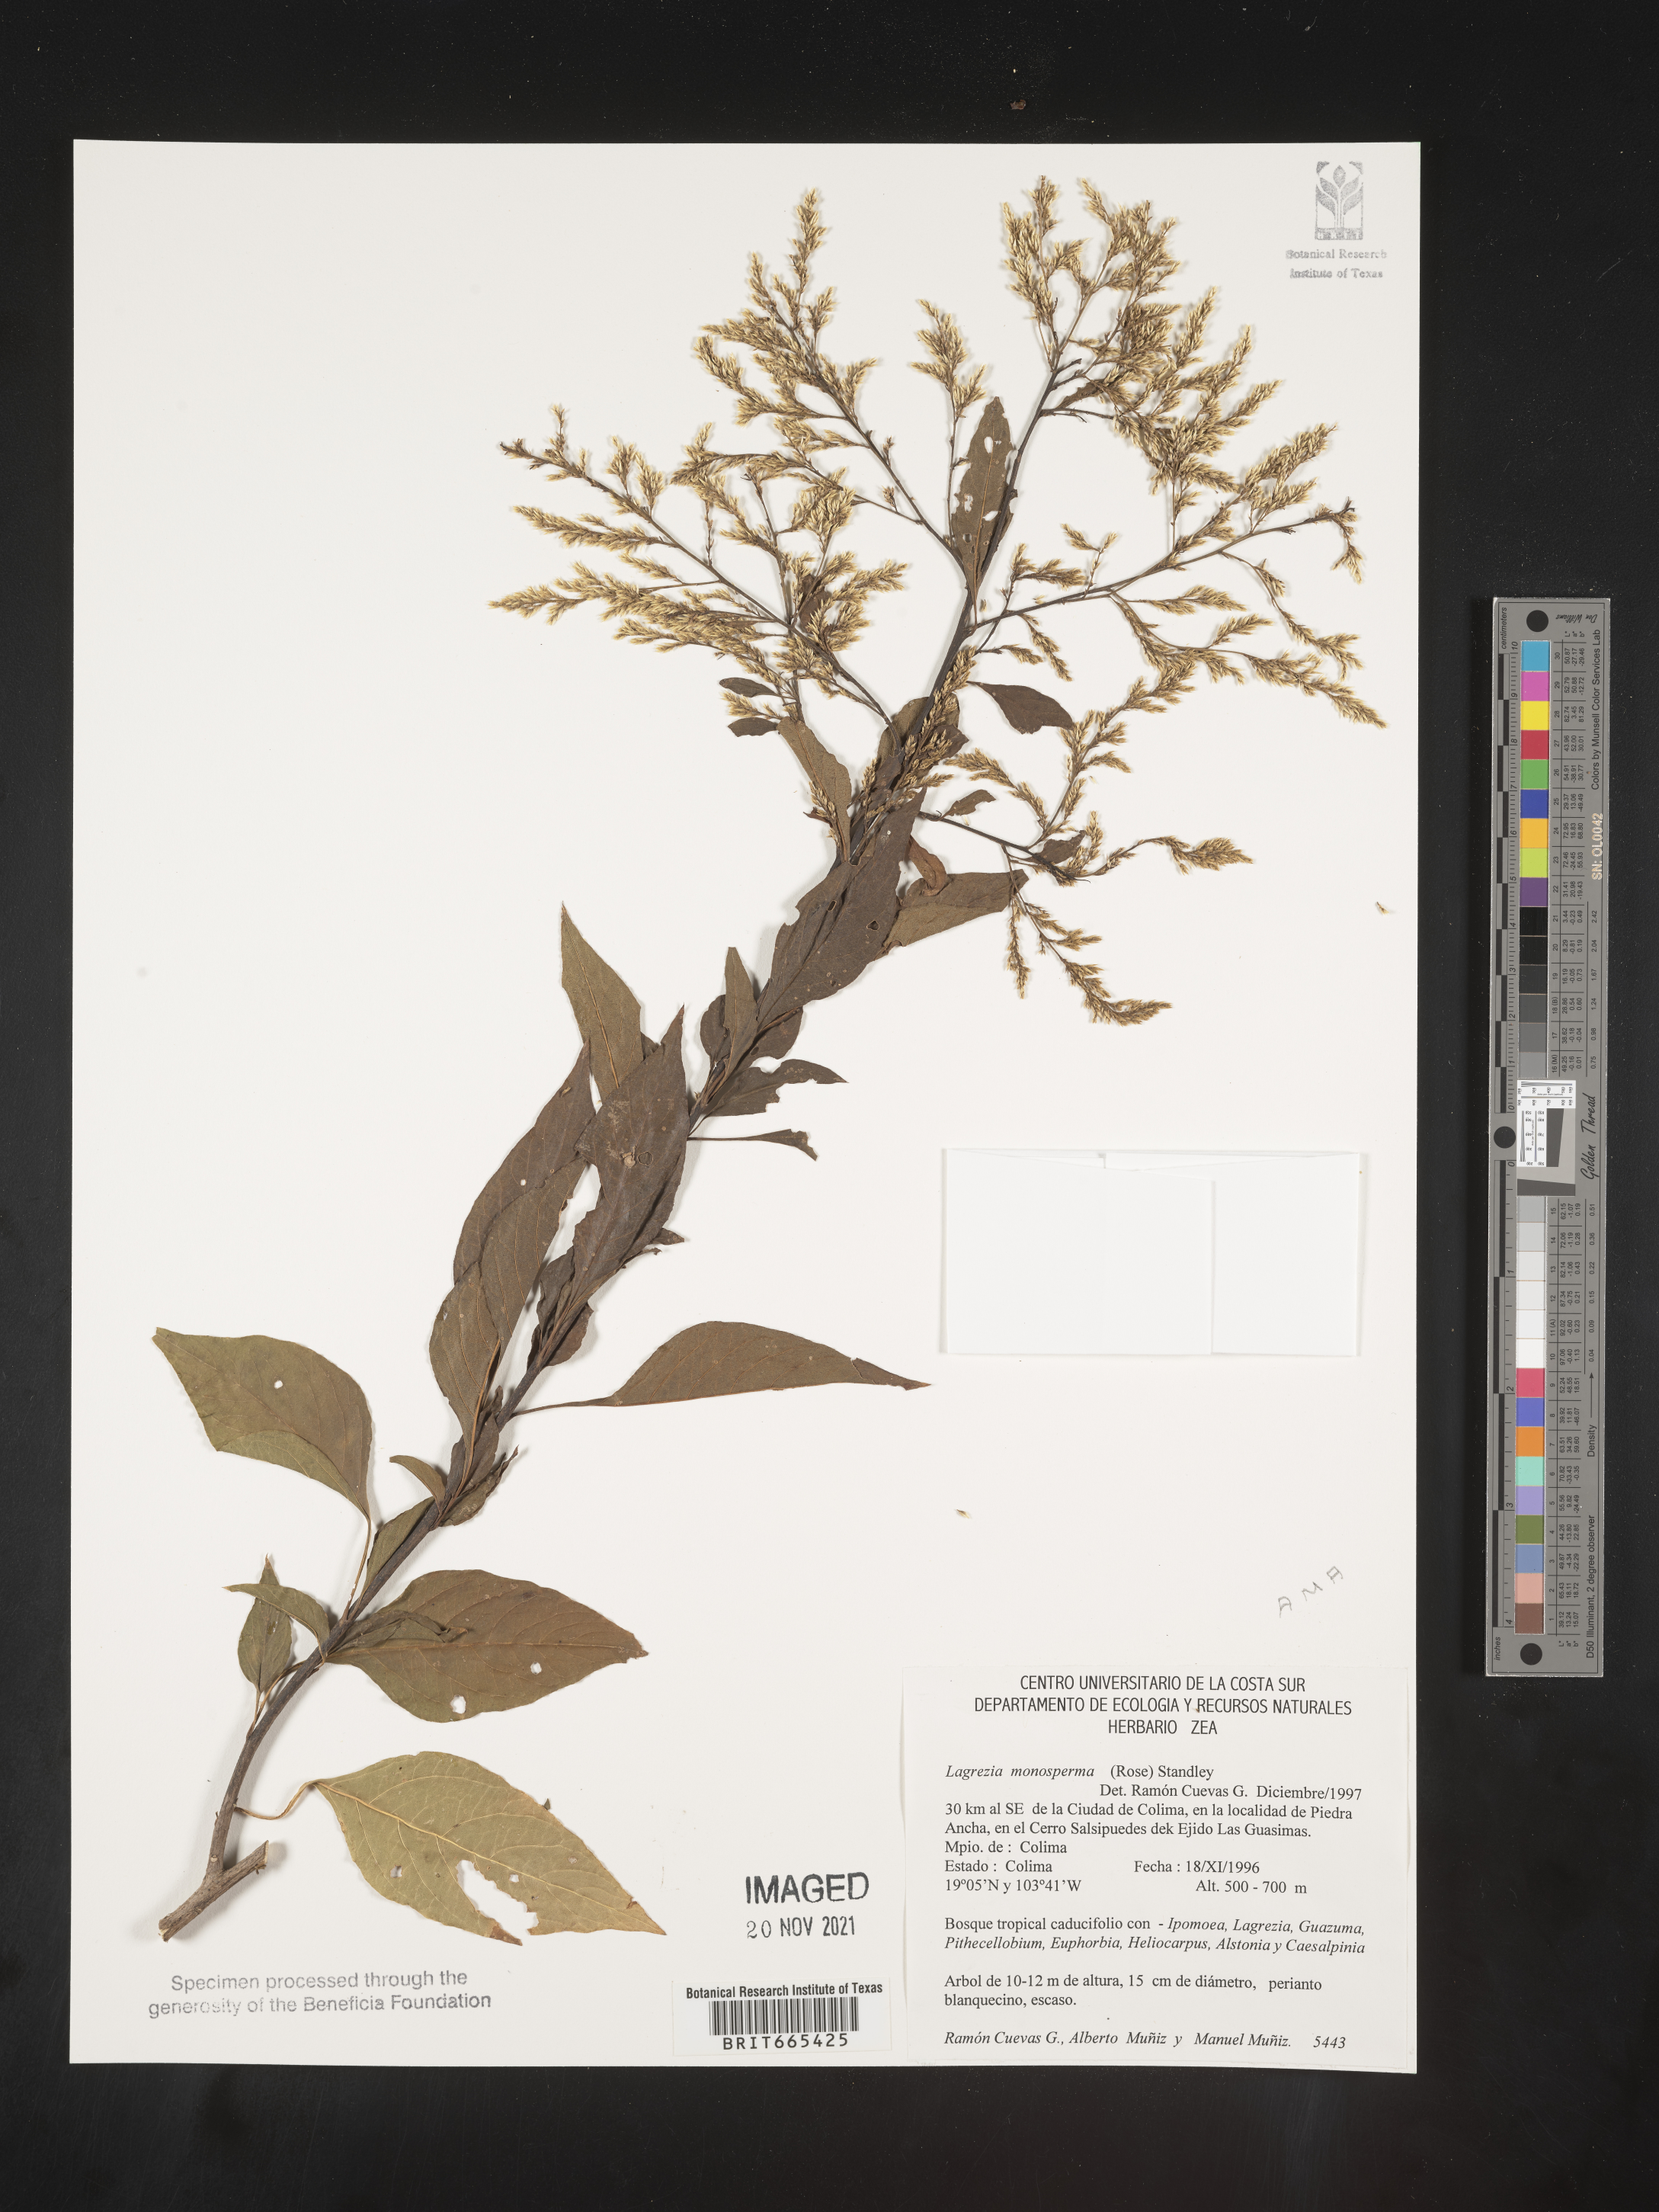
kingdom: Plantae
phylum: Tracheophyta
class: Magnoliopsida
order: Caryophyllales
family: Amaranthaceae
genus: Lagrezia
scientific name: Lagrezia
